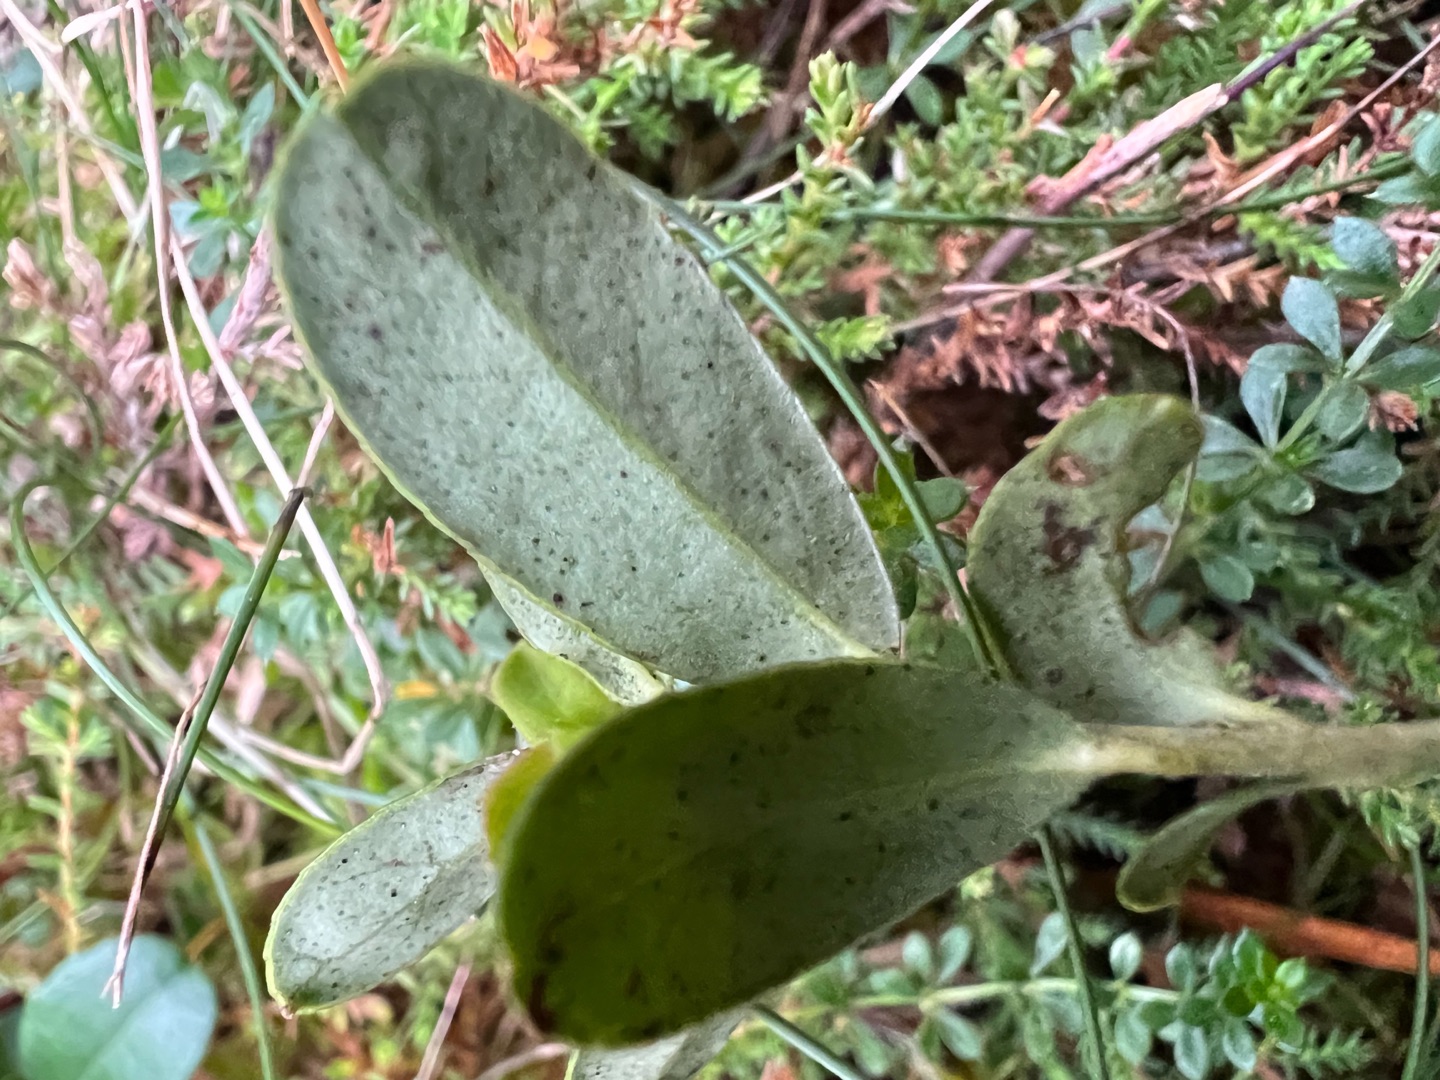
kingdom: Plantae
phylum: Tracheophyta
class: Magnoliopsida
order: Ericales
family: Ericaceae
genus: Vaccinium
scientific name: Vaccinium vitis-idaea
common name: Tyttebær
